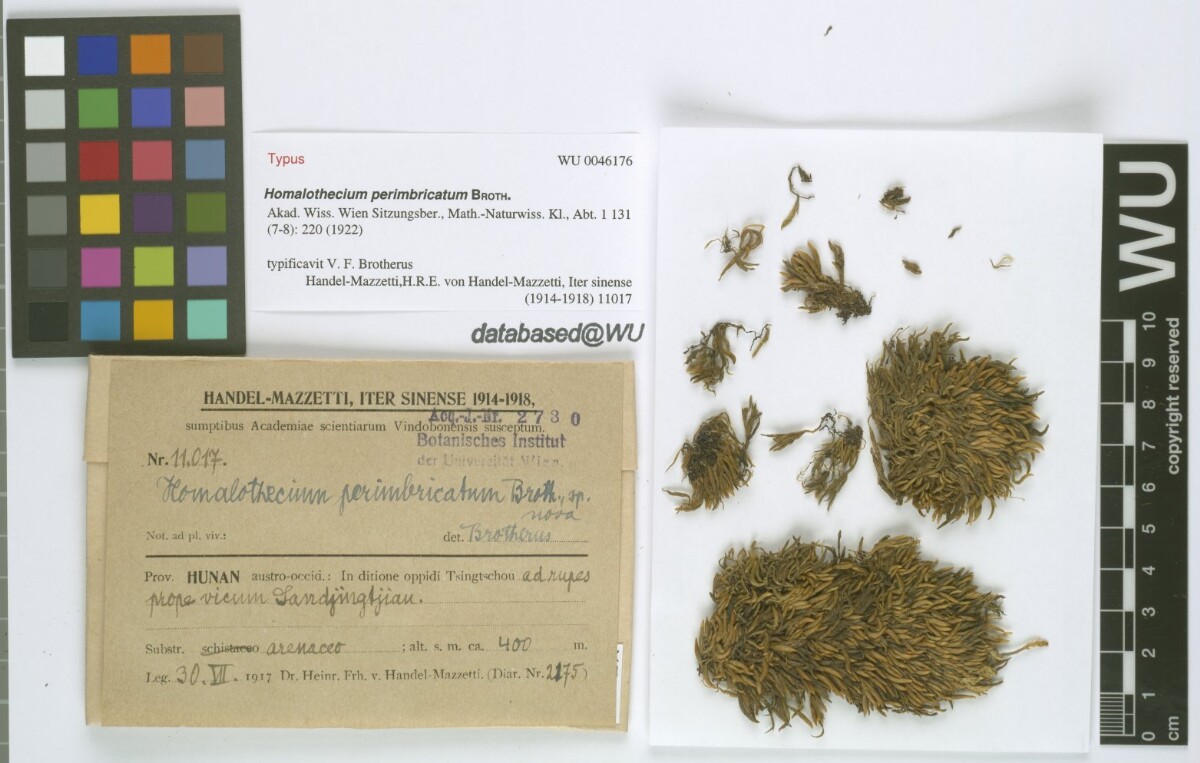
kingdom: Plantae
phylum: Bryophyta
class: Bryopsida
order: Hypnales
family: Brachytheciaceae
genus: Oticodium
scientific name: Oticodium laevisetum
